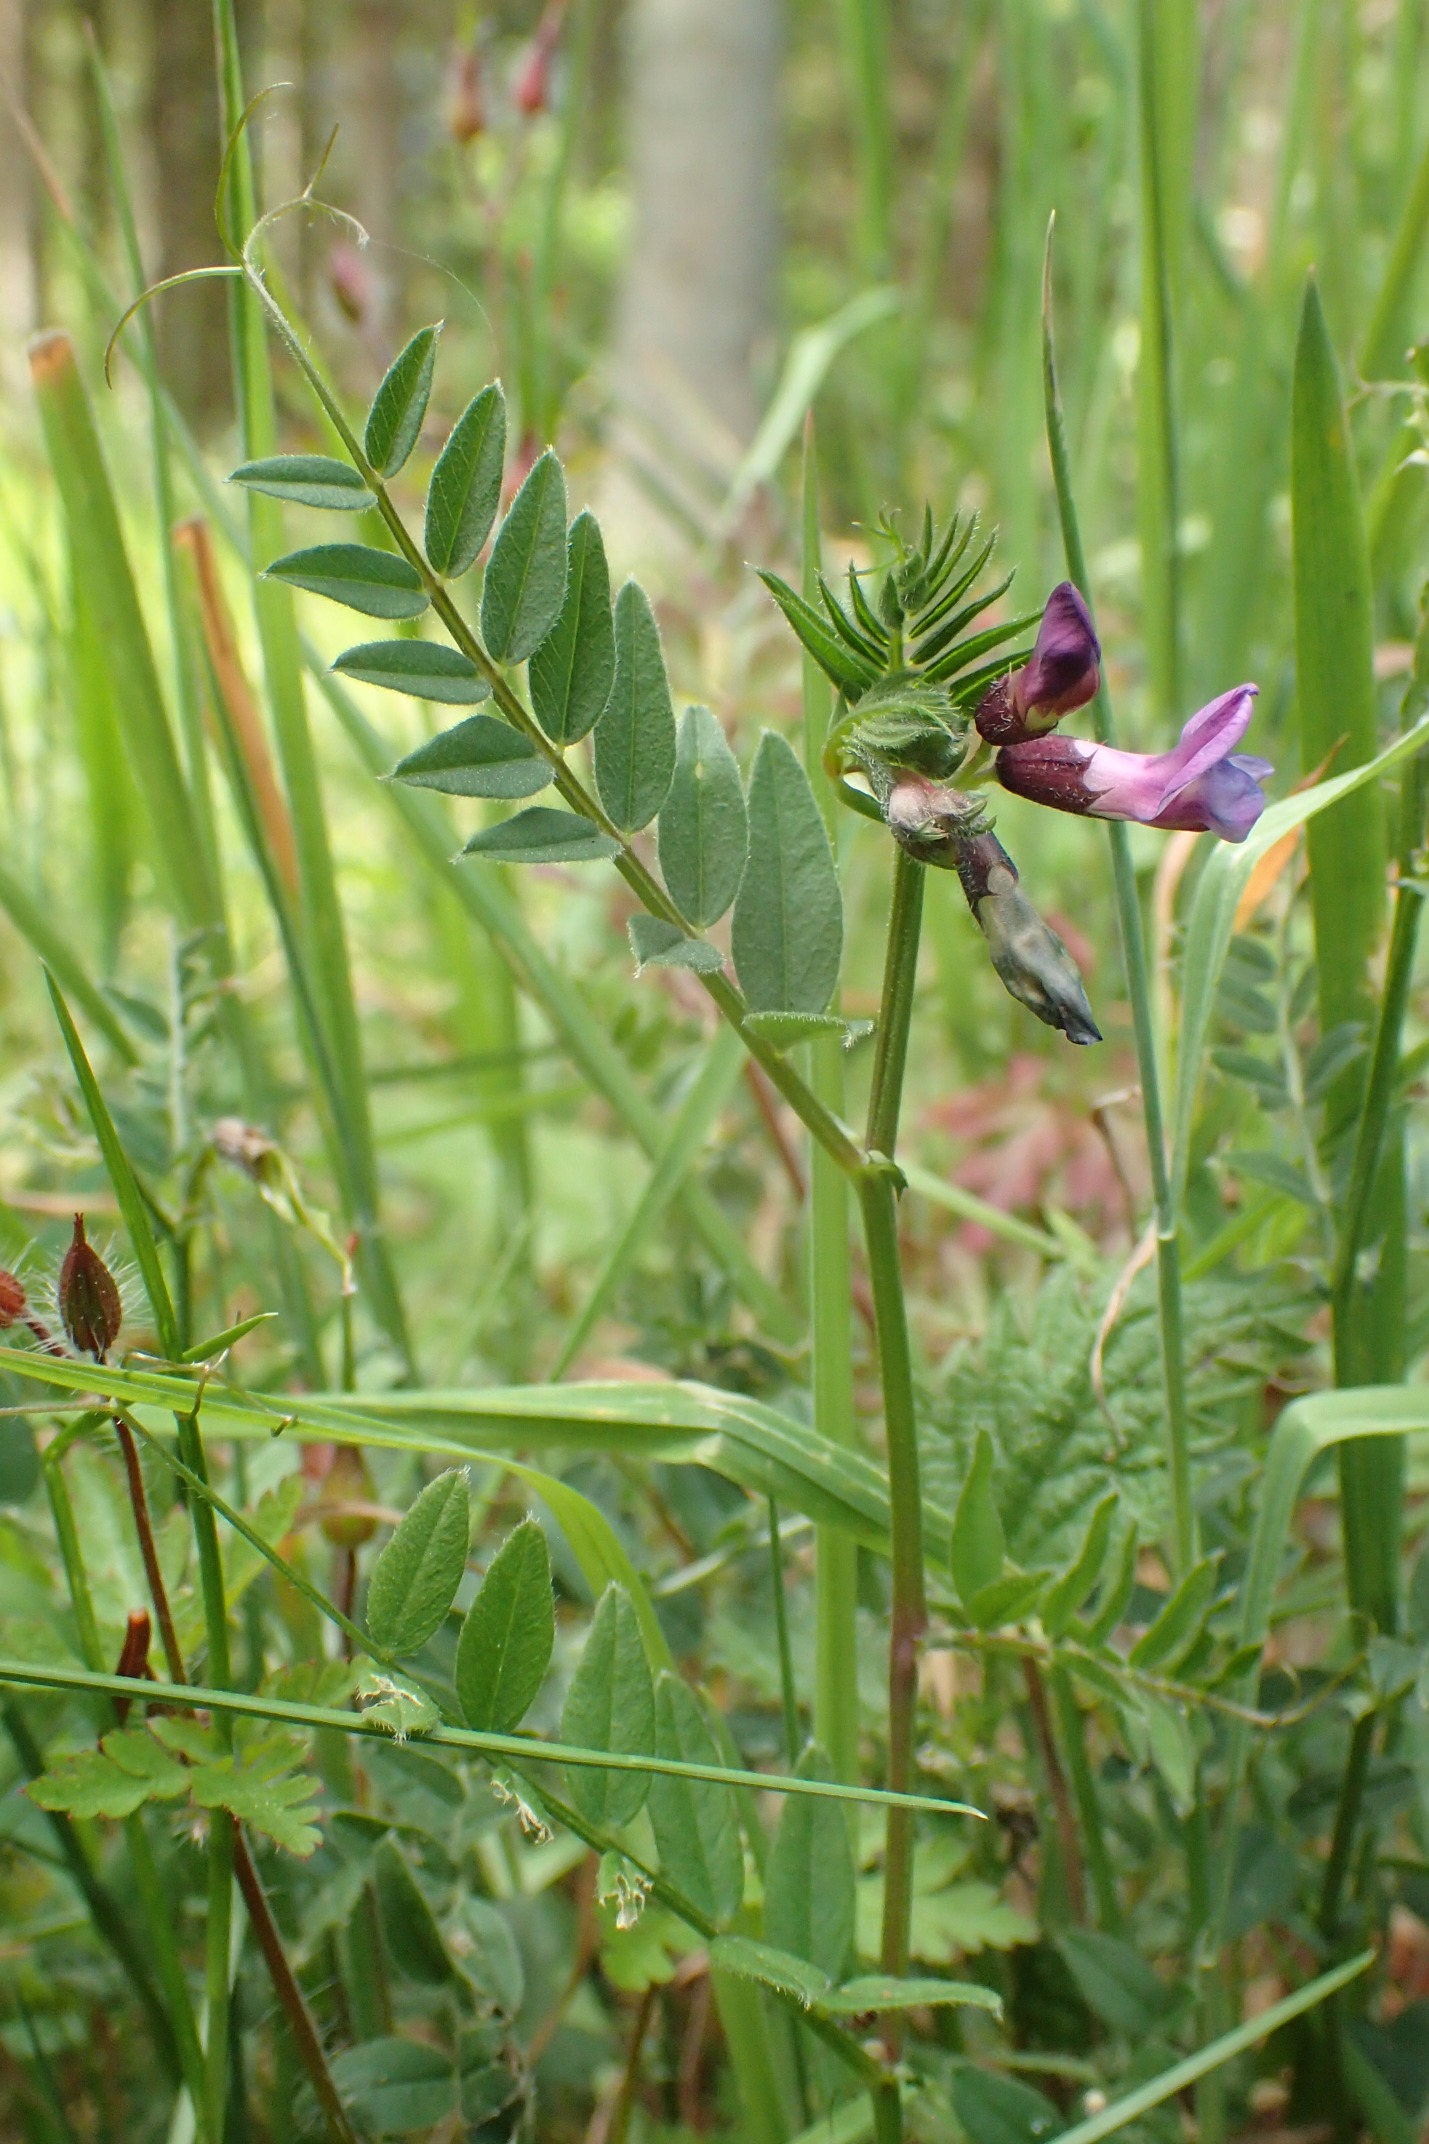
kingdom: Plantae
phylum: Tracheophyta
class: Magnoliopsida
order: Fabales
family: Fabaceae
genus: Vicia
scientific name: Vicia sepium
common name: Gærde-vikke
